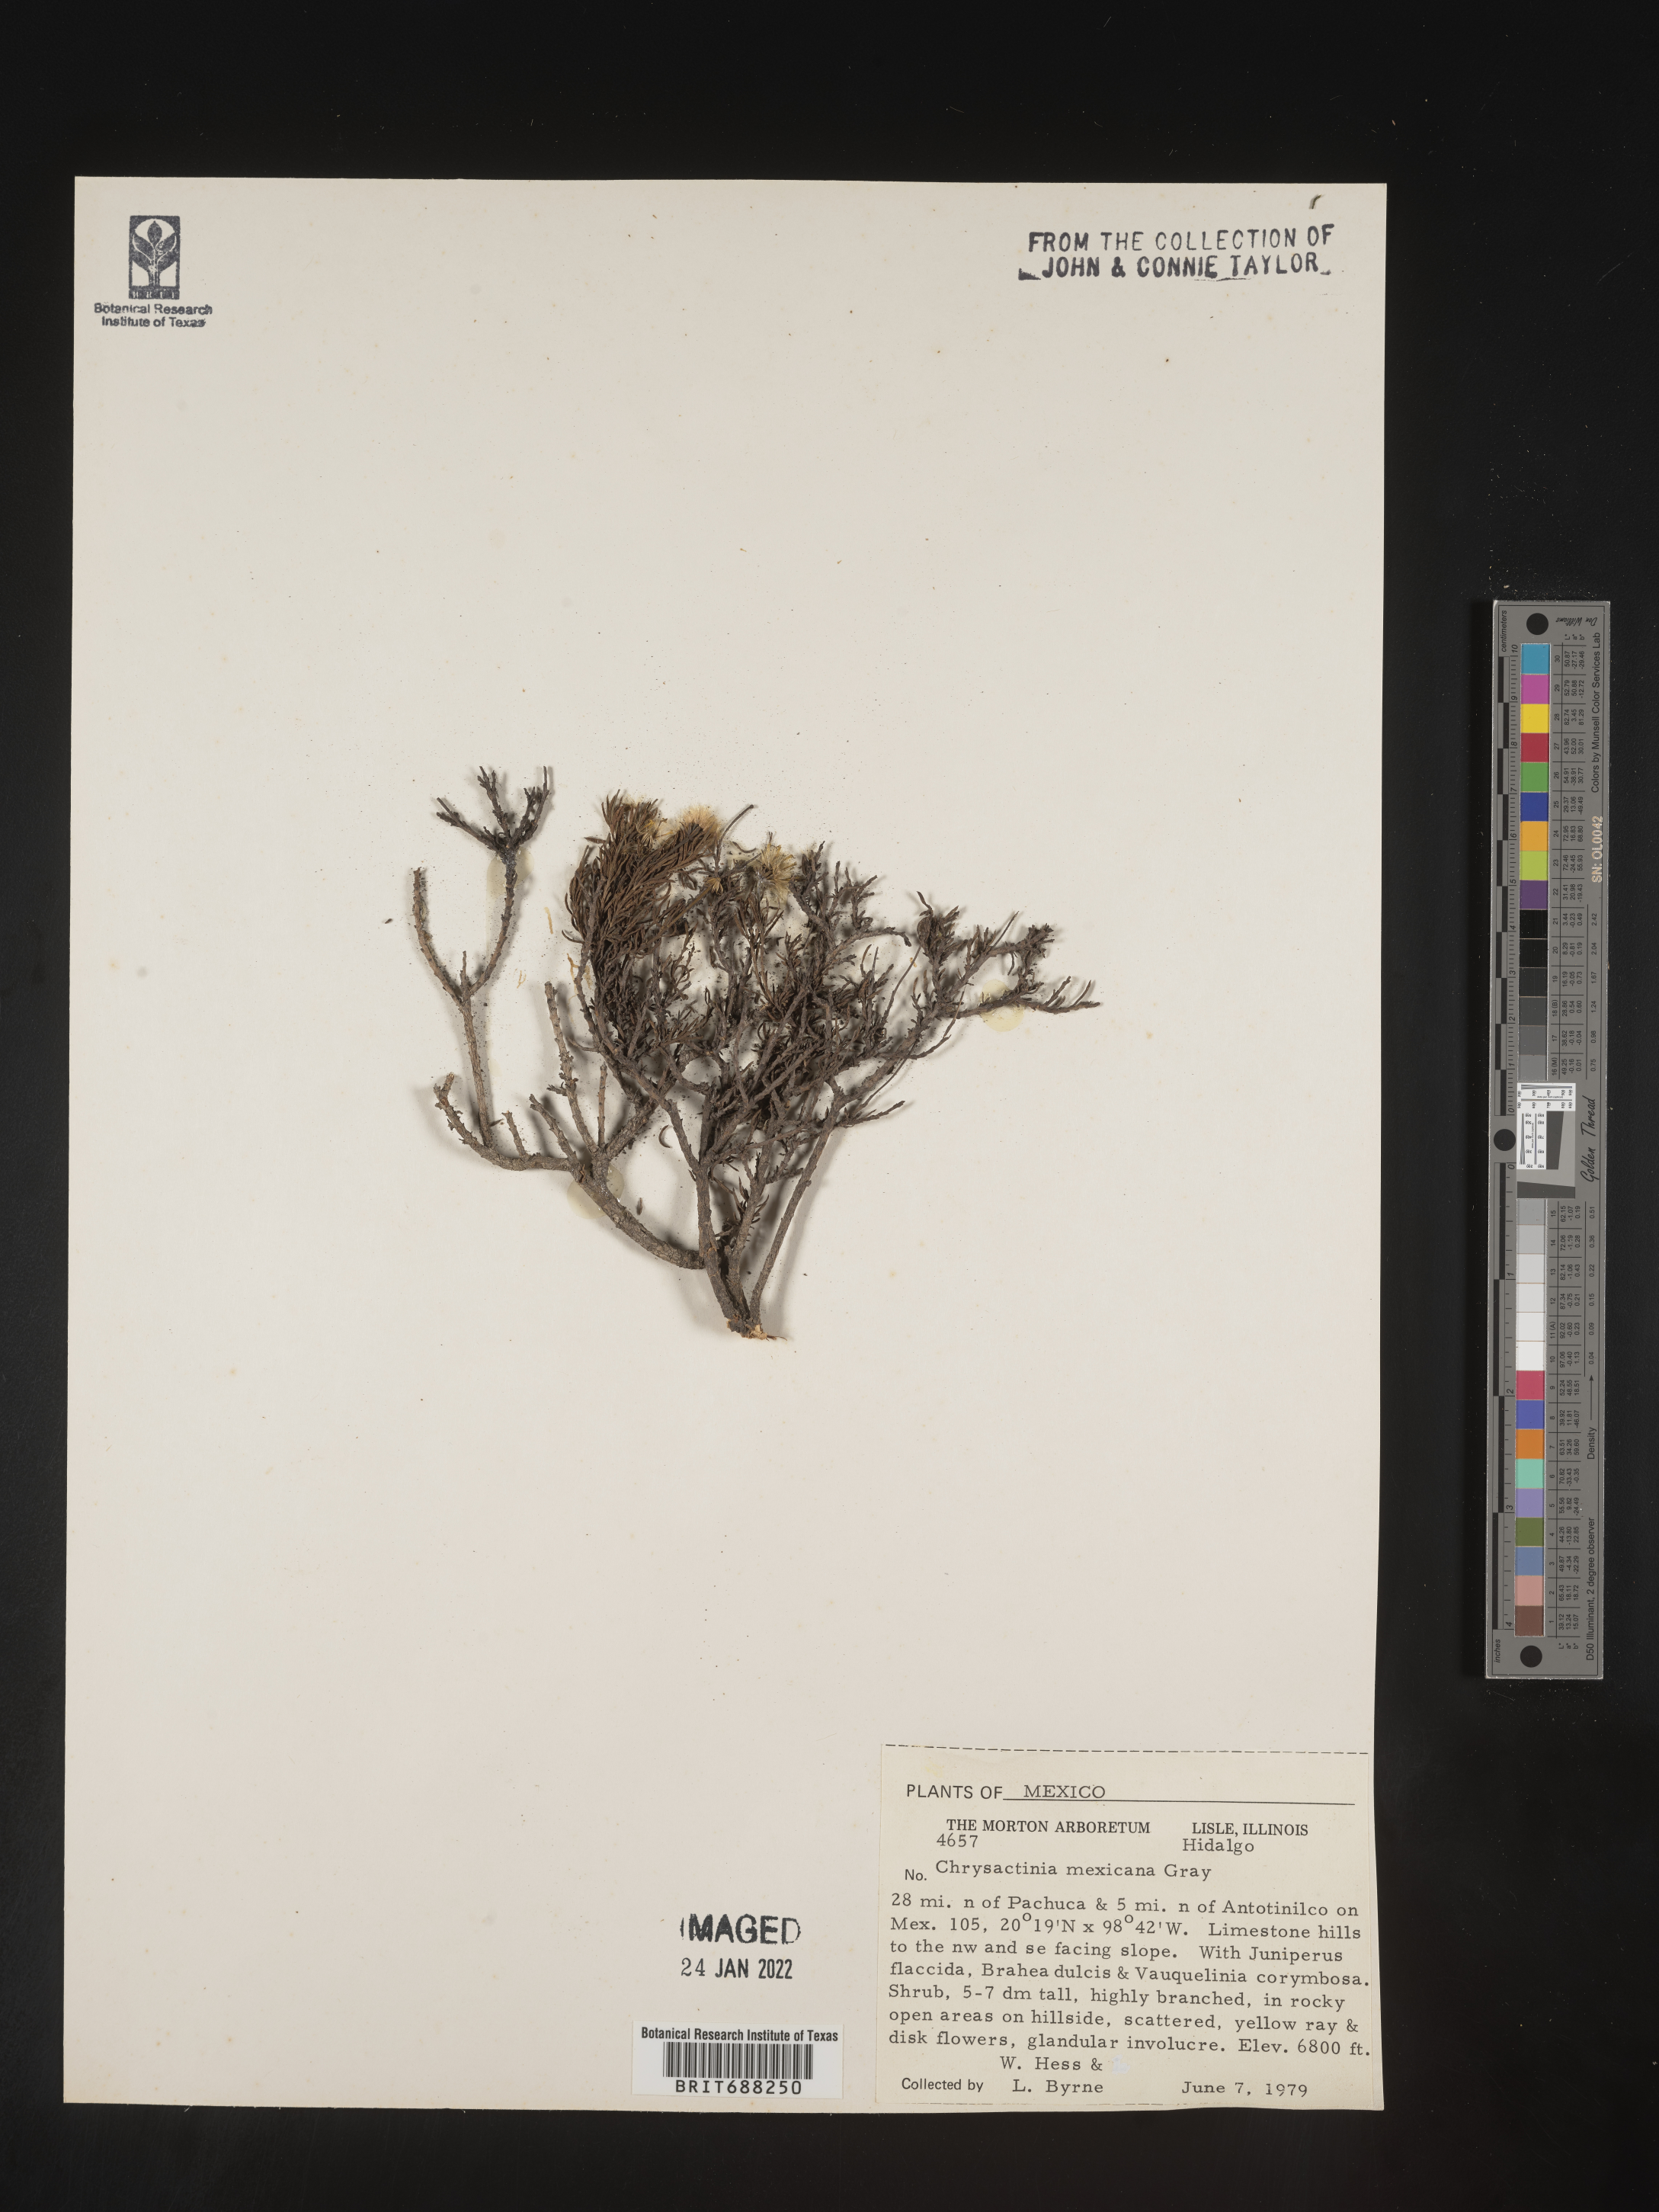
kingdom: Plantae
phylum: Tracheophyta
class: Magnoliopsida
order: Asterales
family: Asteraceae
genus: Chrysactinia
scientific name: Chrysactinia
